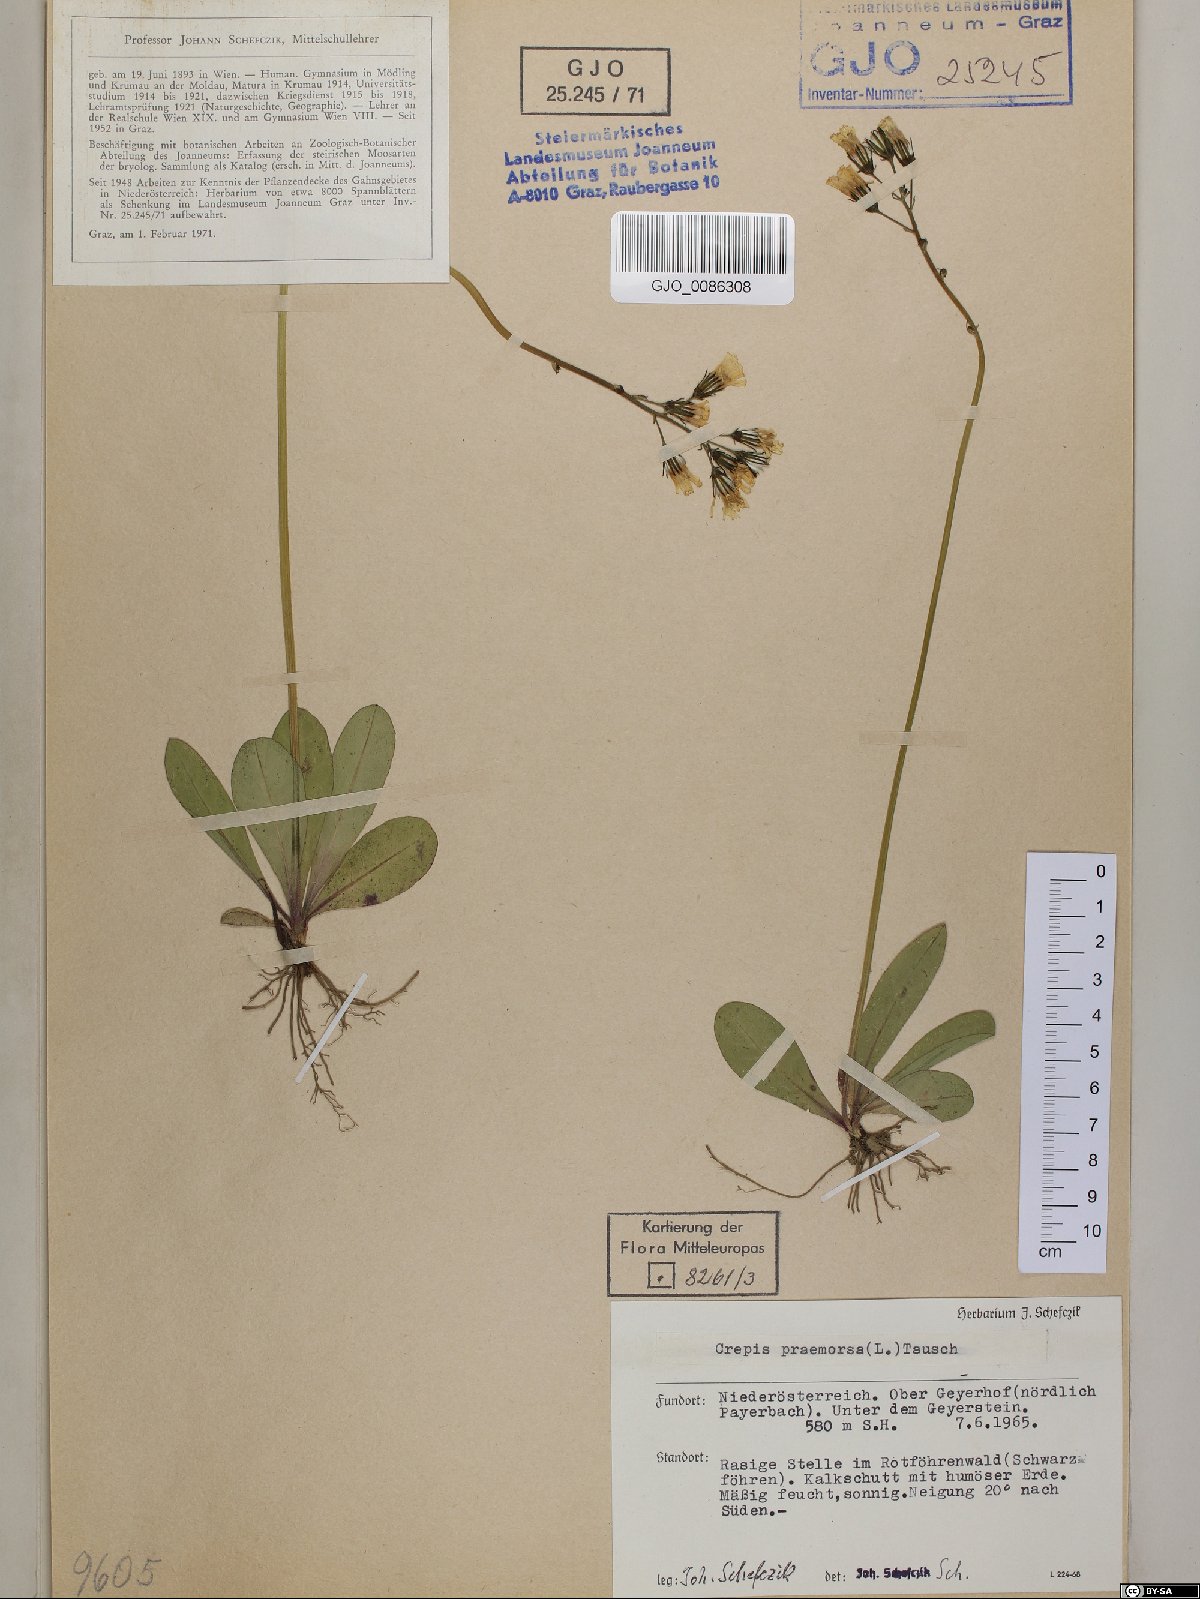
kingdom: Plantae
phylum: Tracheophyta
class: Magnoliopsida
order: Asterales
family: Asteraceae
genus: Crepis
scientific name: Crepis praemorsa
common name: Leafless hawk's-beard
